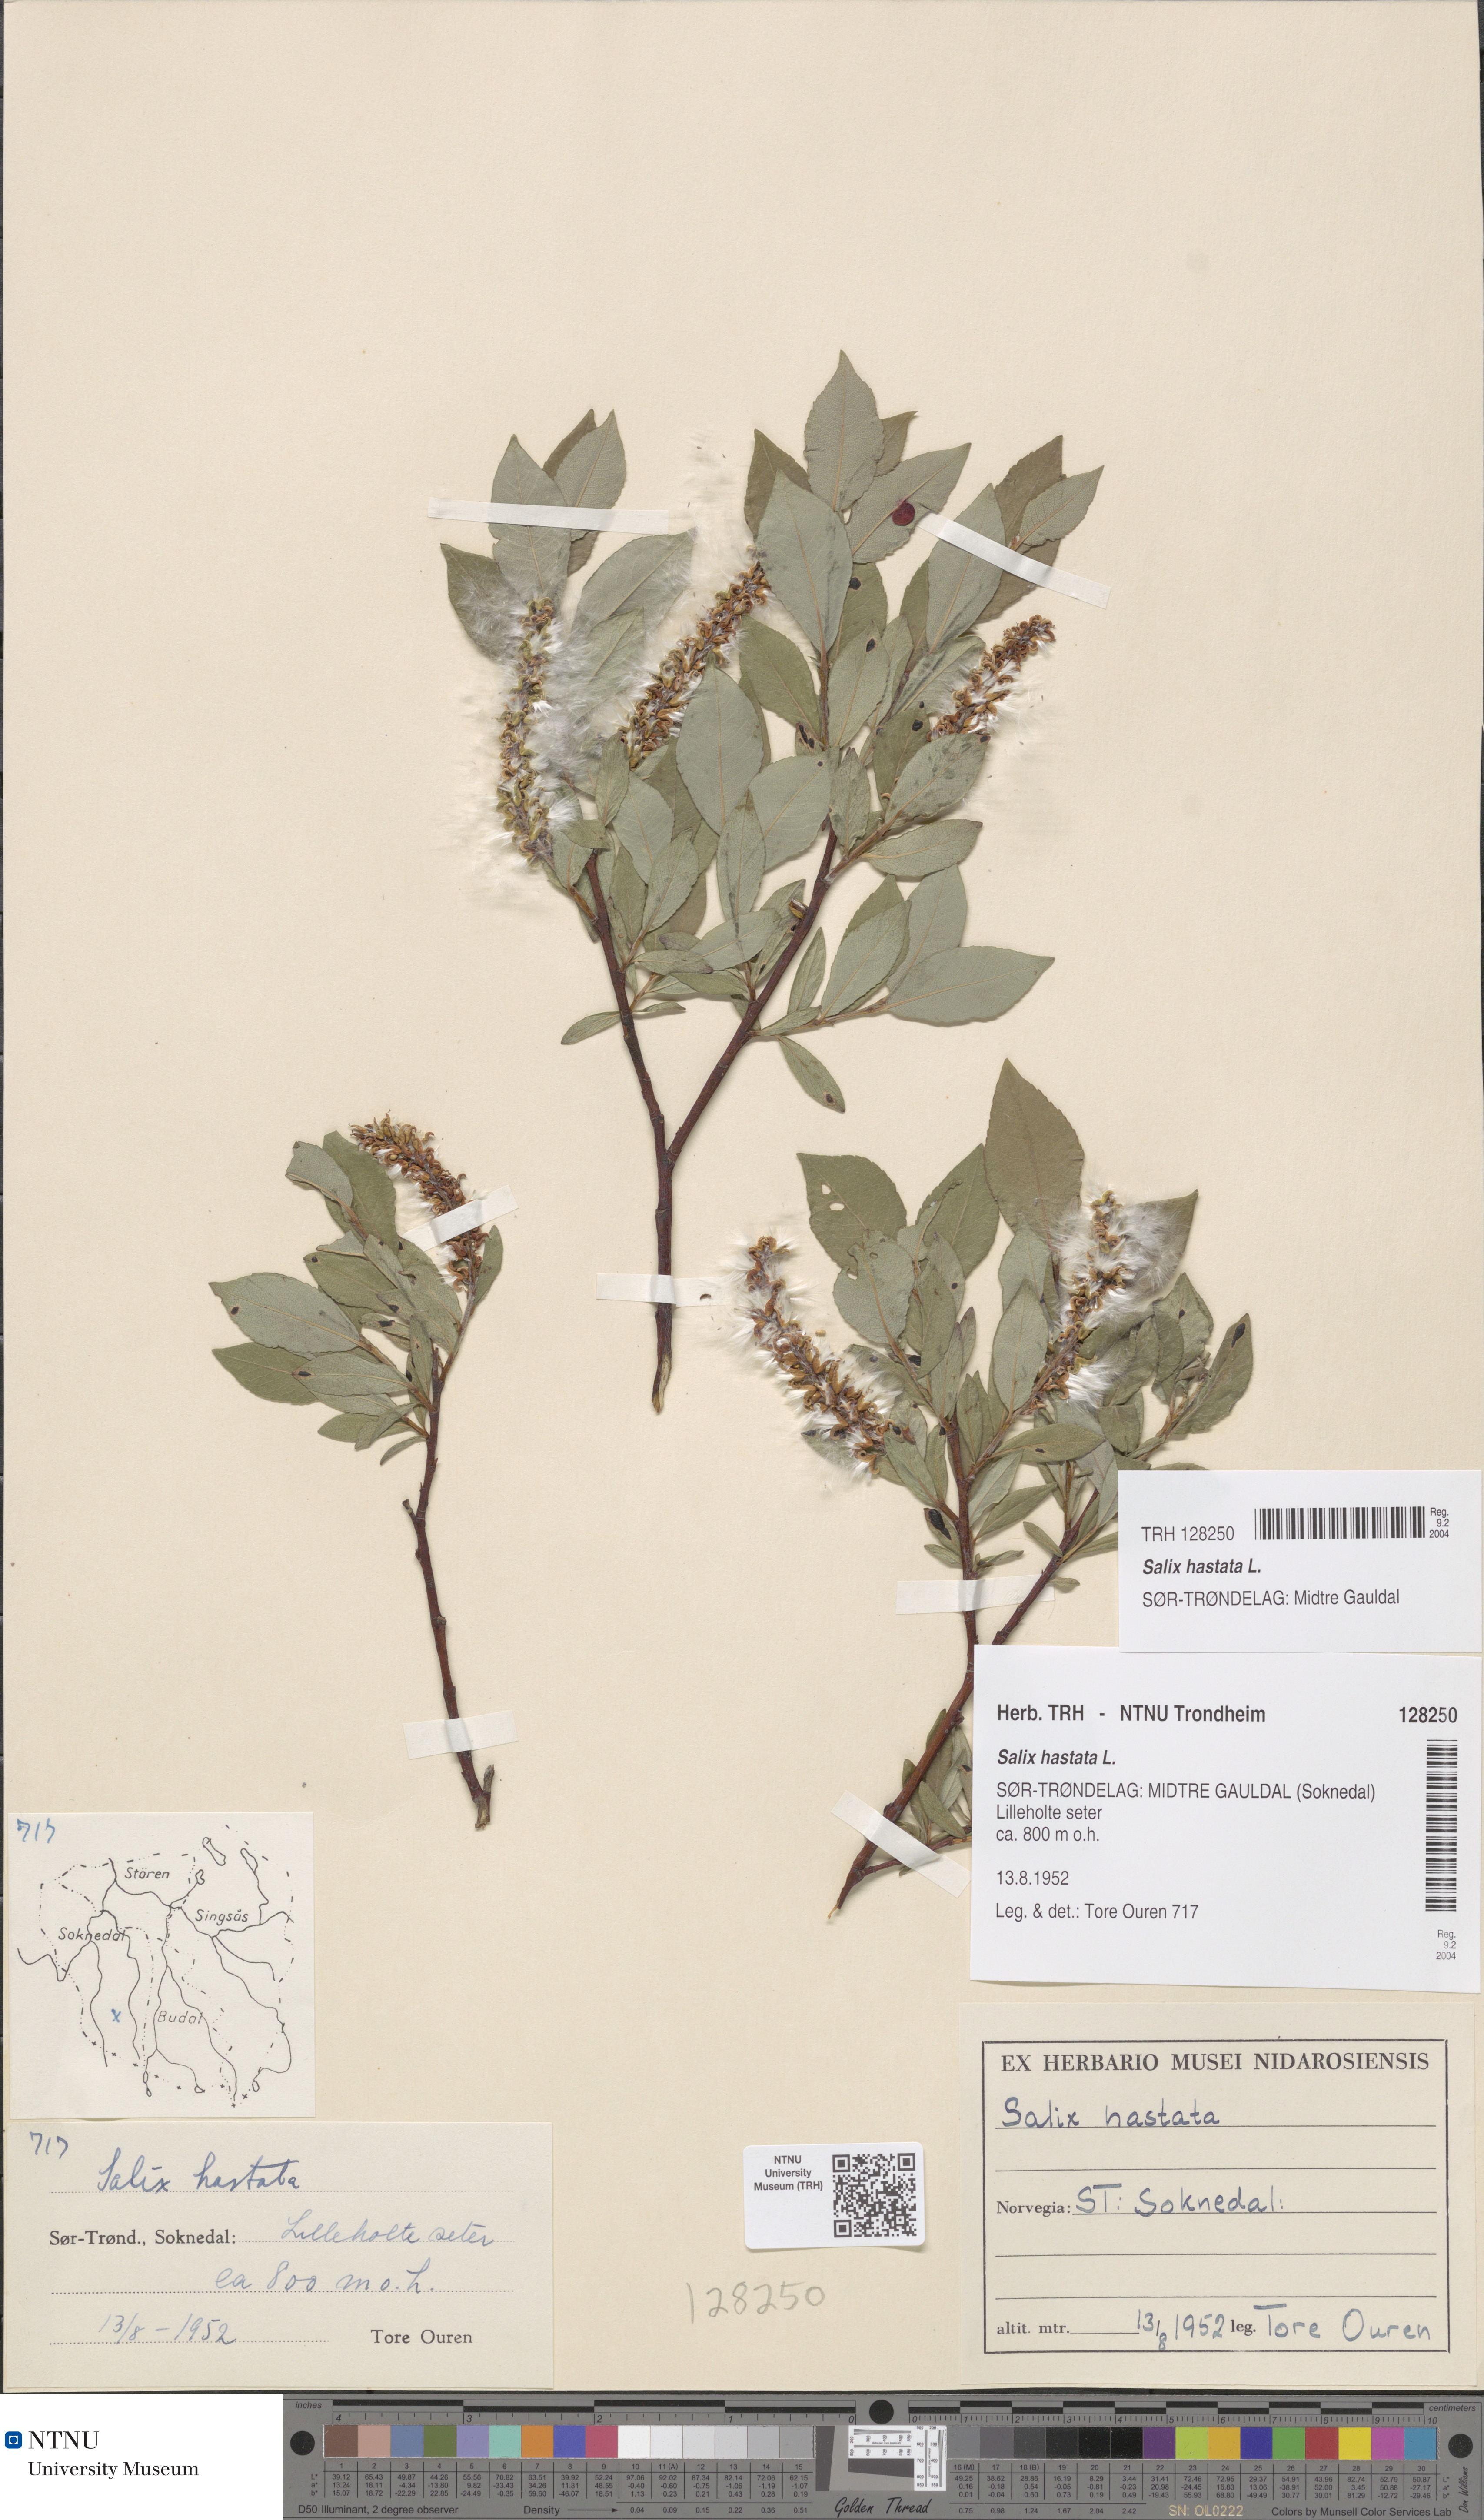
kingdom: Plantae
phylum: Tracheophyta
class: Magnoliopsida
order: Malpighiales
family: Salicaceae
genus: Salix
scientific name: Salix hastata
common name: Halberd willow
